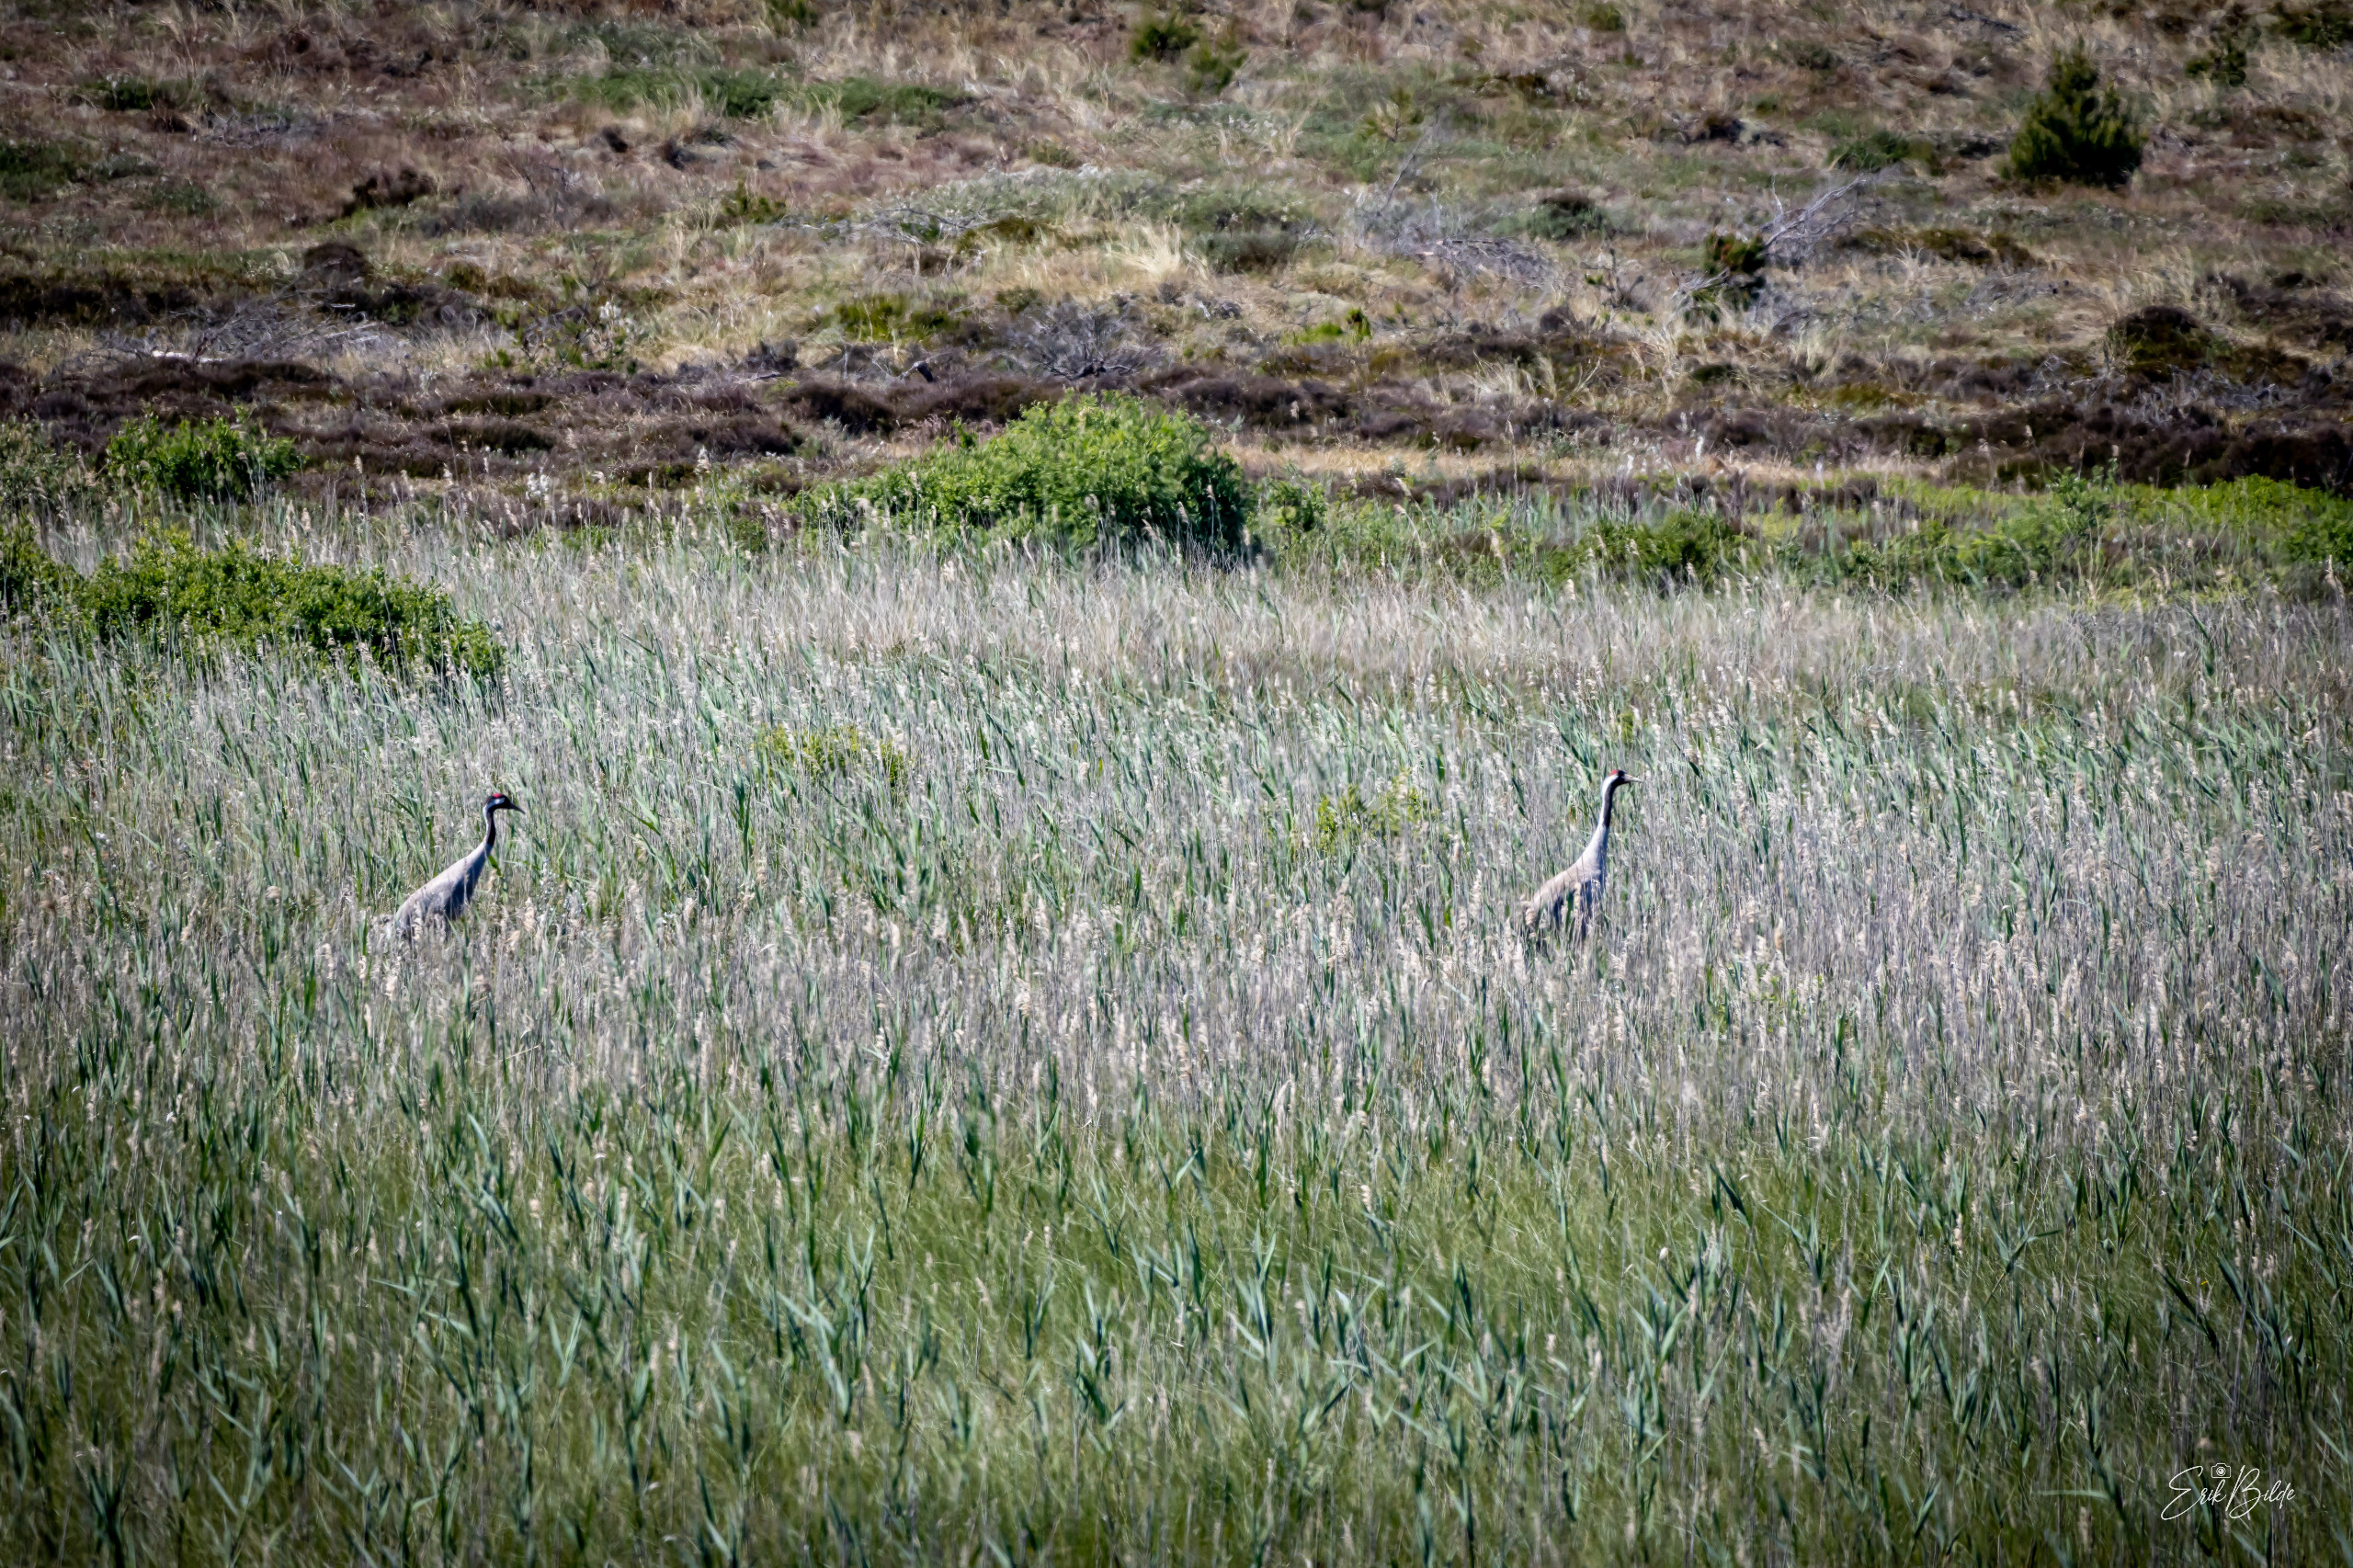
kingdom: Animalia
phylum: Chordata
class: Aves
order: Gruiformes
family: Gruidae
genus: Grus
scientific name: Grus grus
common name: Trane
